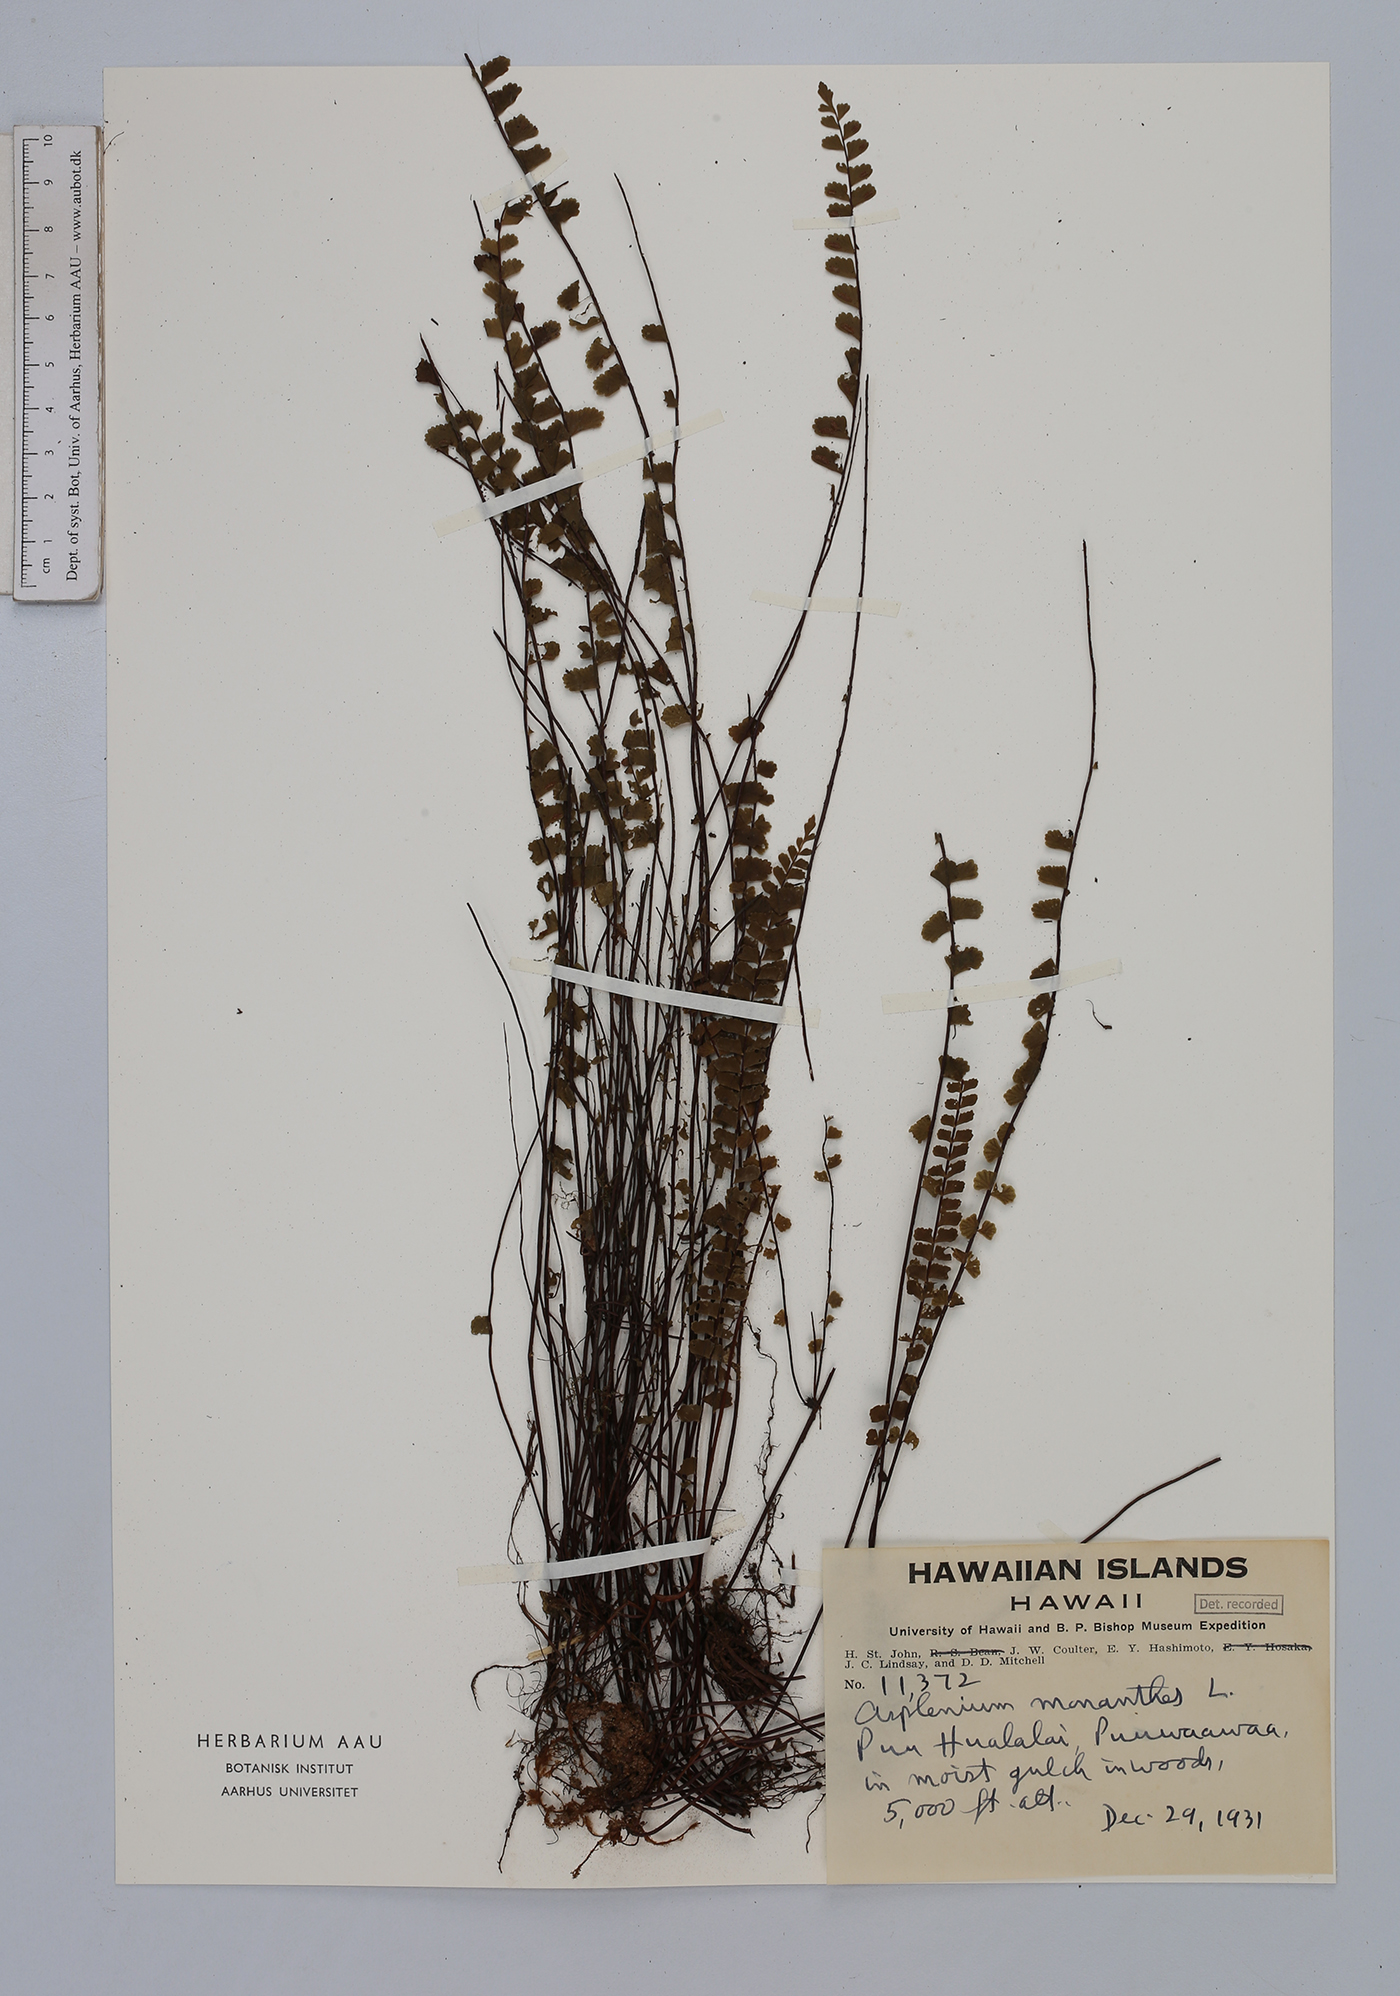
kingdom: Plantae
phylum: Tracheophyta
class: Polypodiopsida
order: Polypodiales
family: Aspleniaceae
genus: Asplenium
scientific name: Asplenium monanthes
